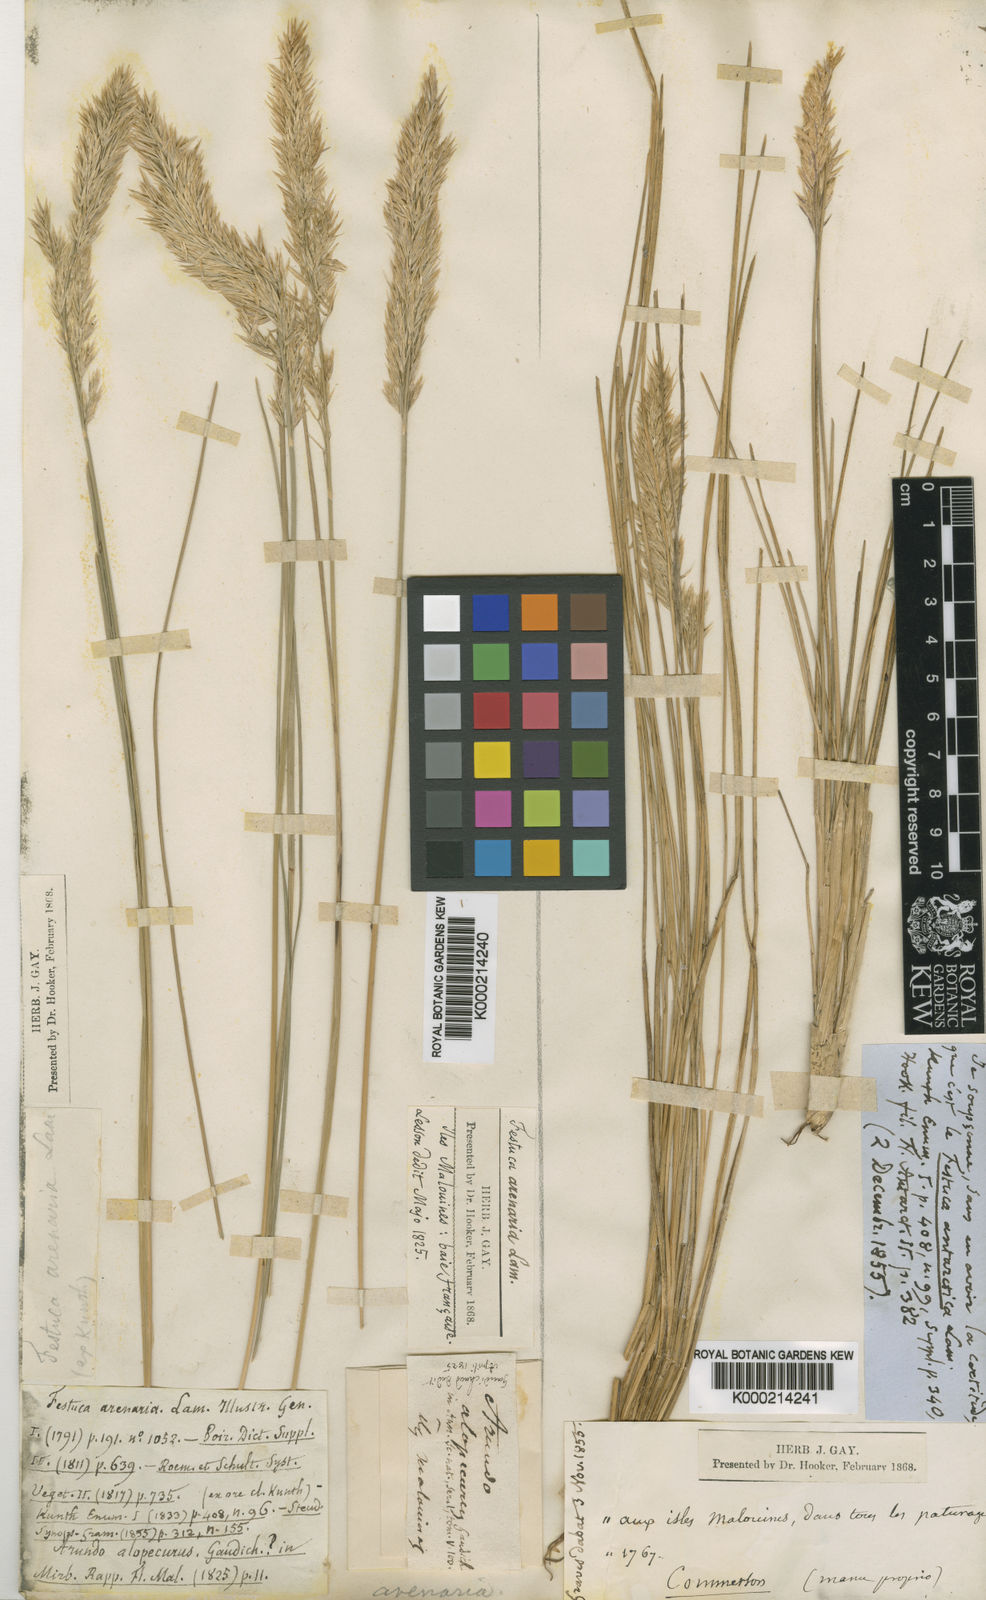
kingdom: Plantae
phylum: Tracheophyta
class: Liliopsida
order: Poales
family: Poaceae
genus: Poa
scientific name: Poa alopecurus
